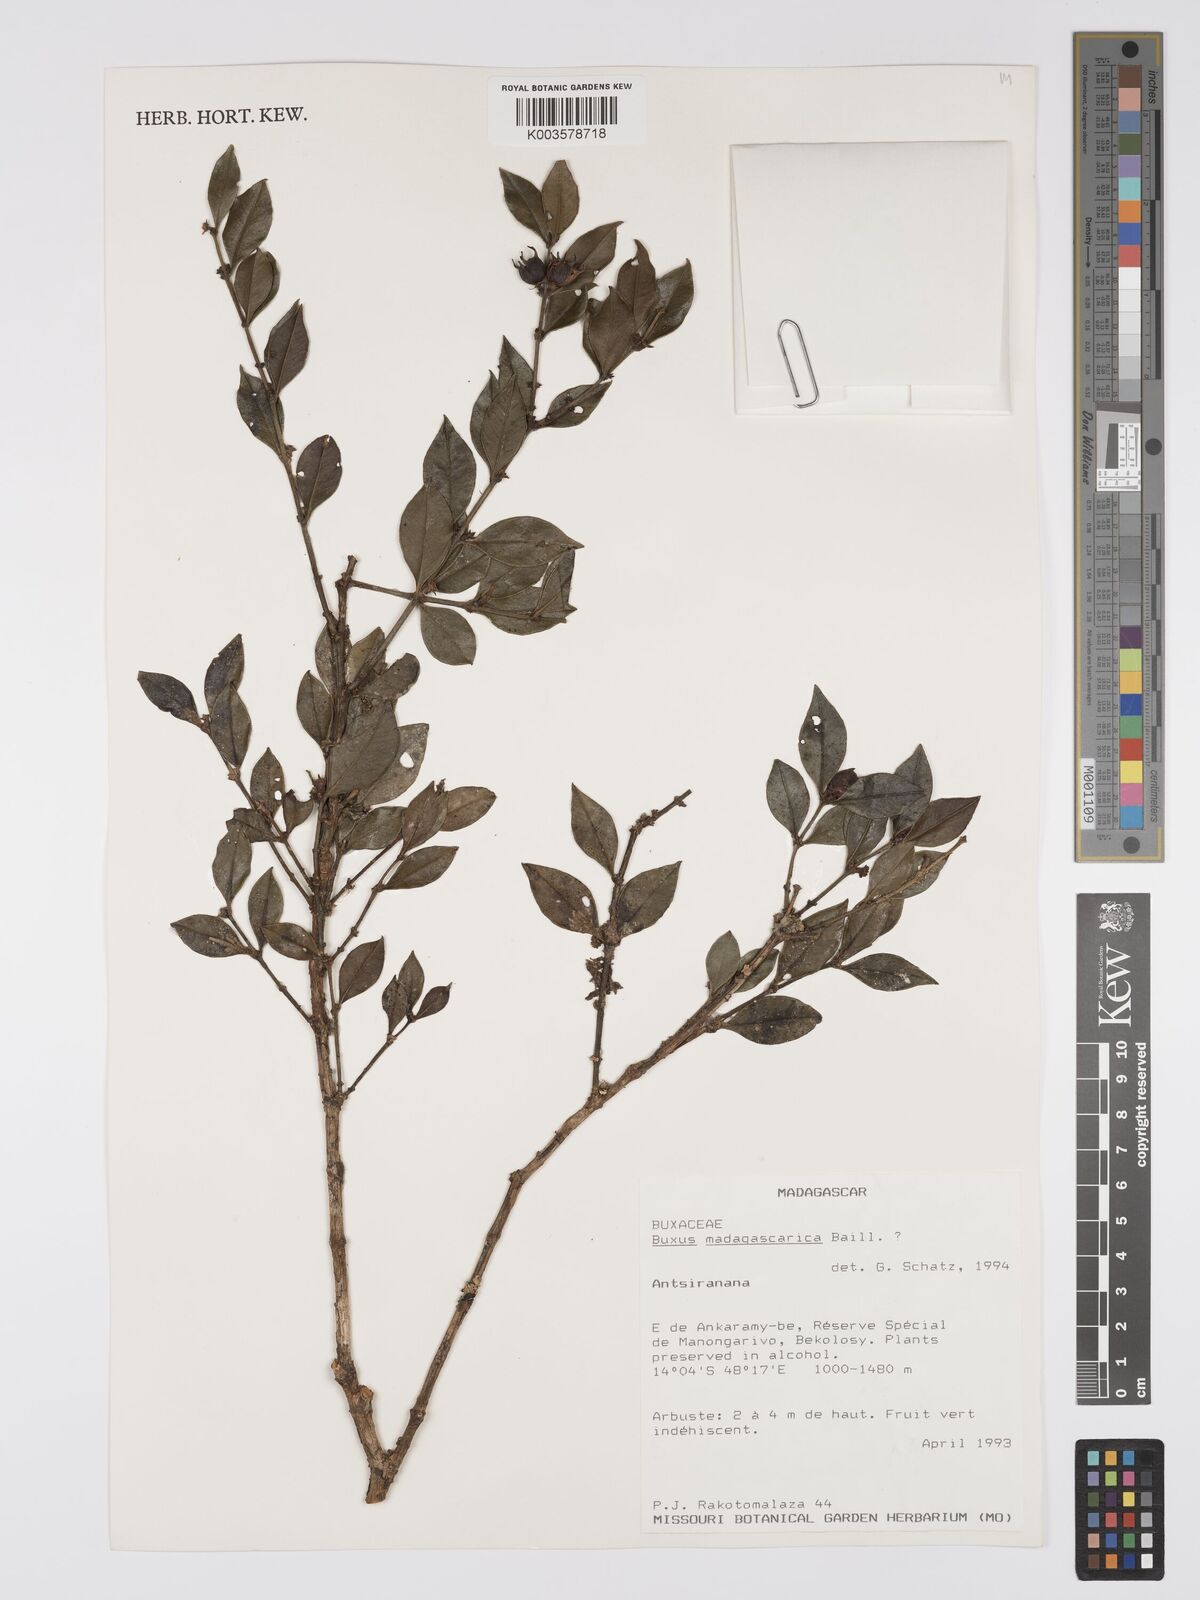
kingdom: Plantae
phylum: Tracheophyta
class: Magnoliopsida
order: Buxales
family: Buxaceae
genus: Buxus
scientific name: Buxus madagascarica
